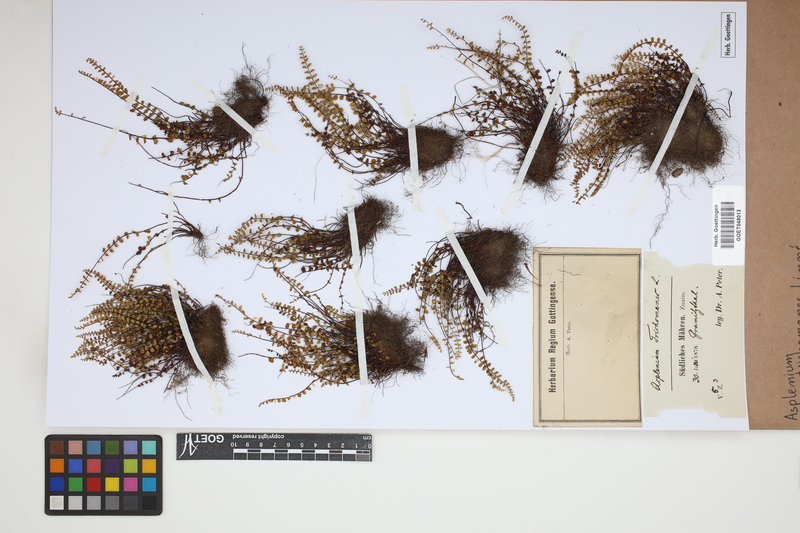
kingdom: Plantae
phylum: Tracheophyta
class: Polypodiopsida
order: Polypodiales
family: Aspleniaceae
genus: Asplenium
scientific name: Asplenium trichomanes
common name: Maidenhair spleenwort
